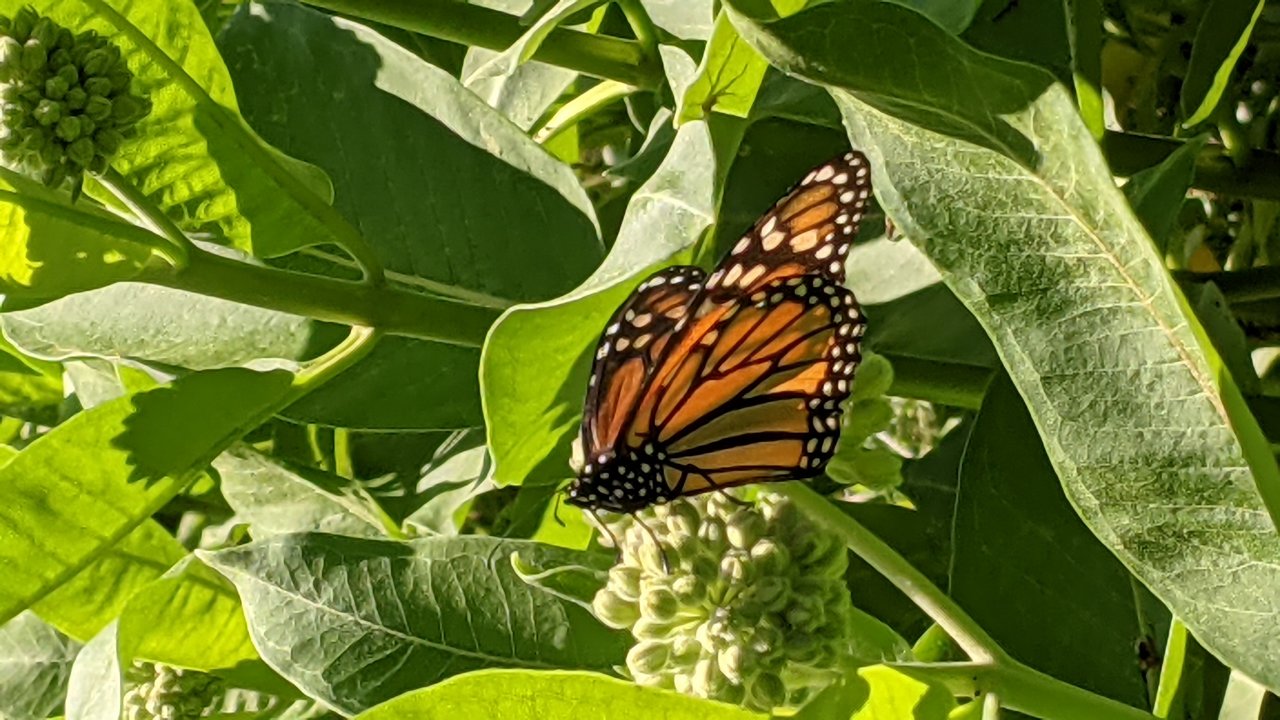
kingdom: Animalia
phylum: Arthropoda
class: Insecta
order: Lepidoptera
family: Nymphalidae
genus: Danaus
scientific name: Danaus plexippus
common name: Monarch
